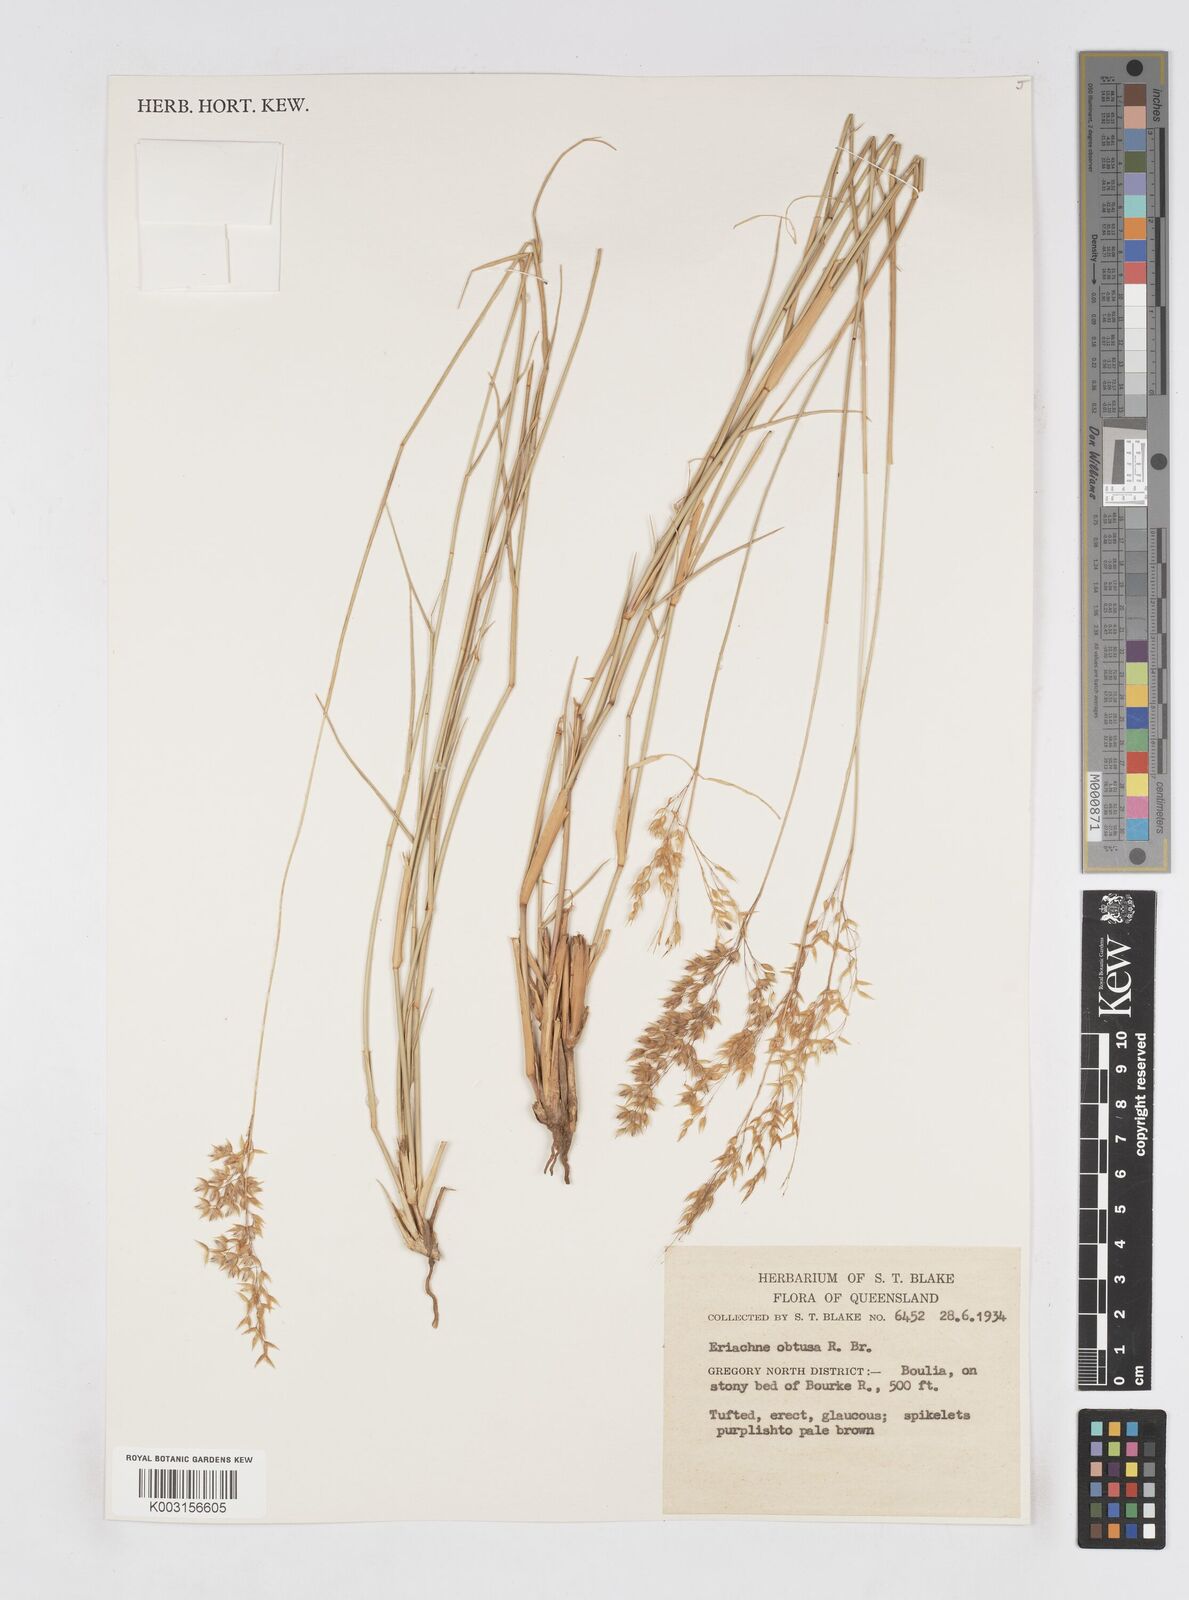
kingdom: Plantae
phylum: Tracheophyta
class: Liliopsida
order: Poales
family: Poaceae
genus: Eriachne
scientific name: Eriachne obtusa
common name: Northern wanderrie grass
